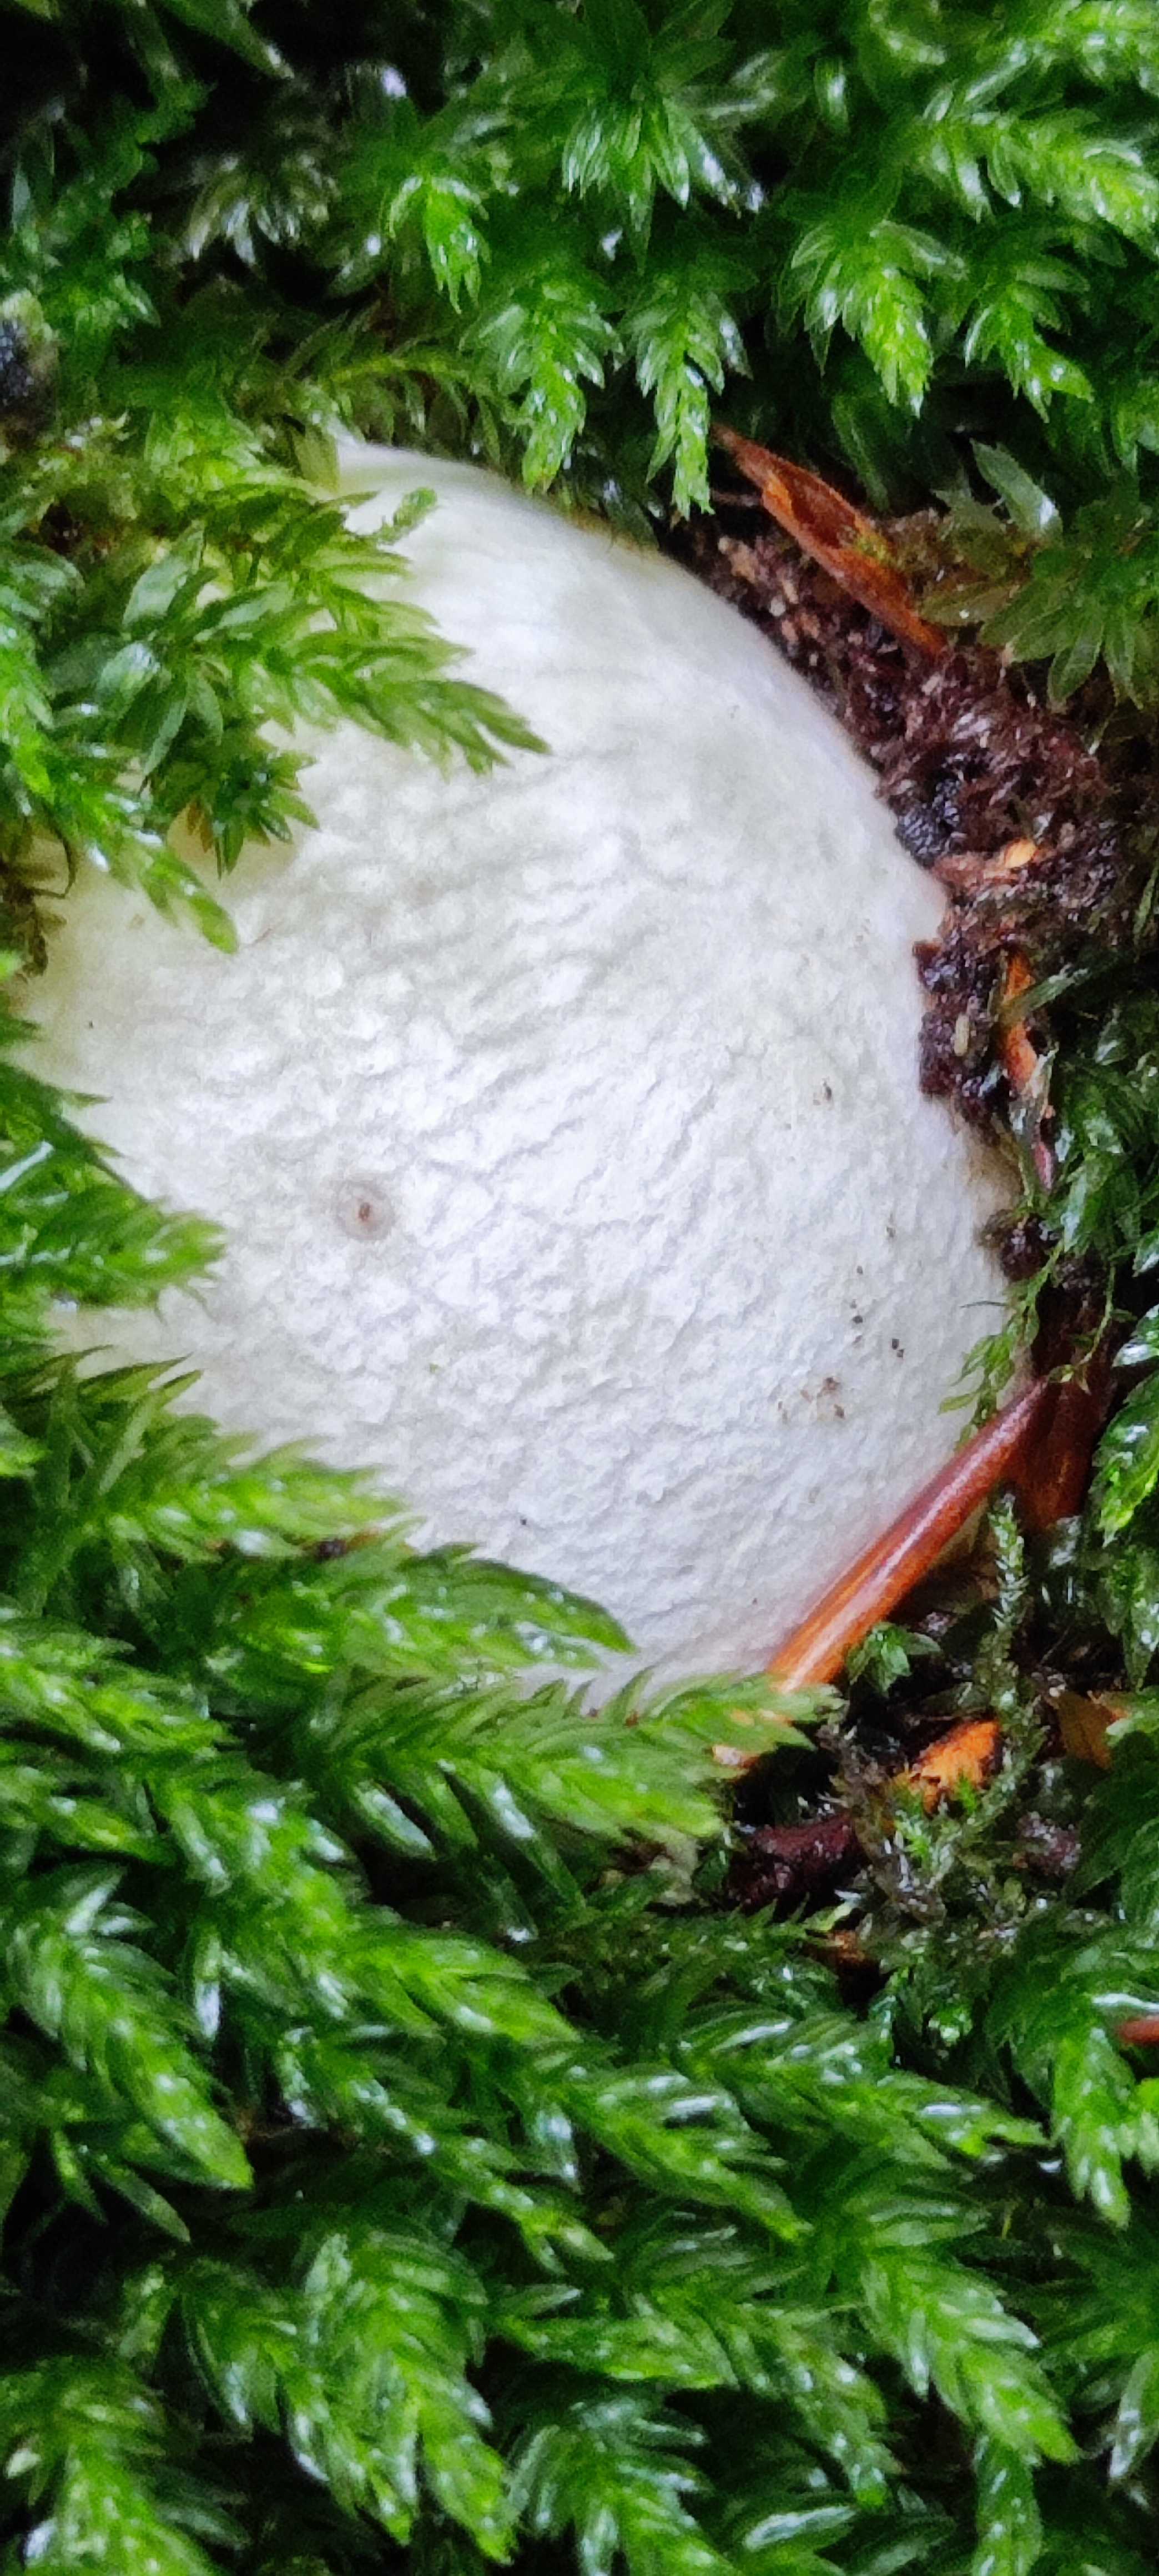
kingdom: Fungi
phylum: Basidiomycota
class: Agaricomycetes
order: Phallales
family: Phallaceae
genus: Phallus
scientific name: Phallus impudicus
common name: almindelig stinksvamp
